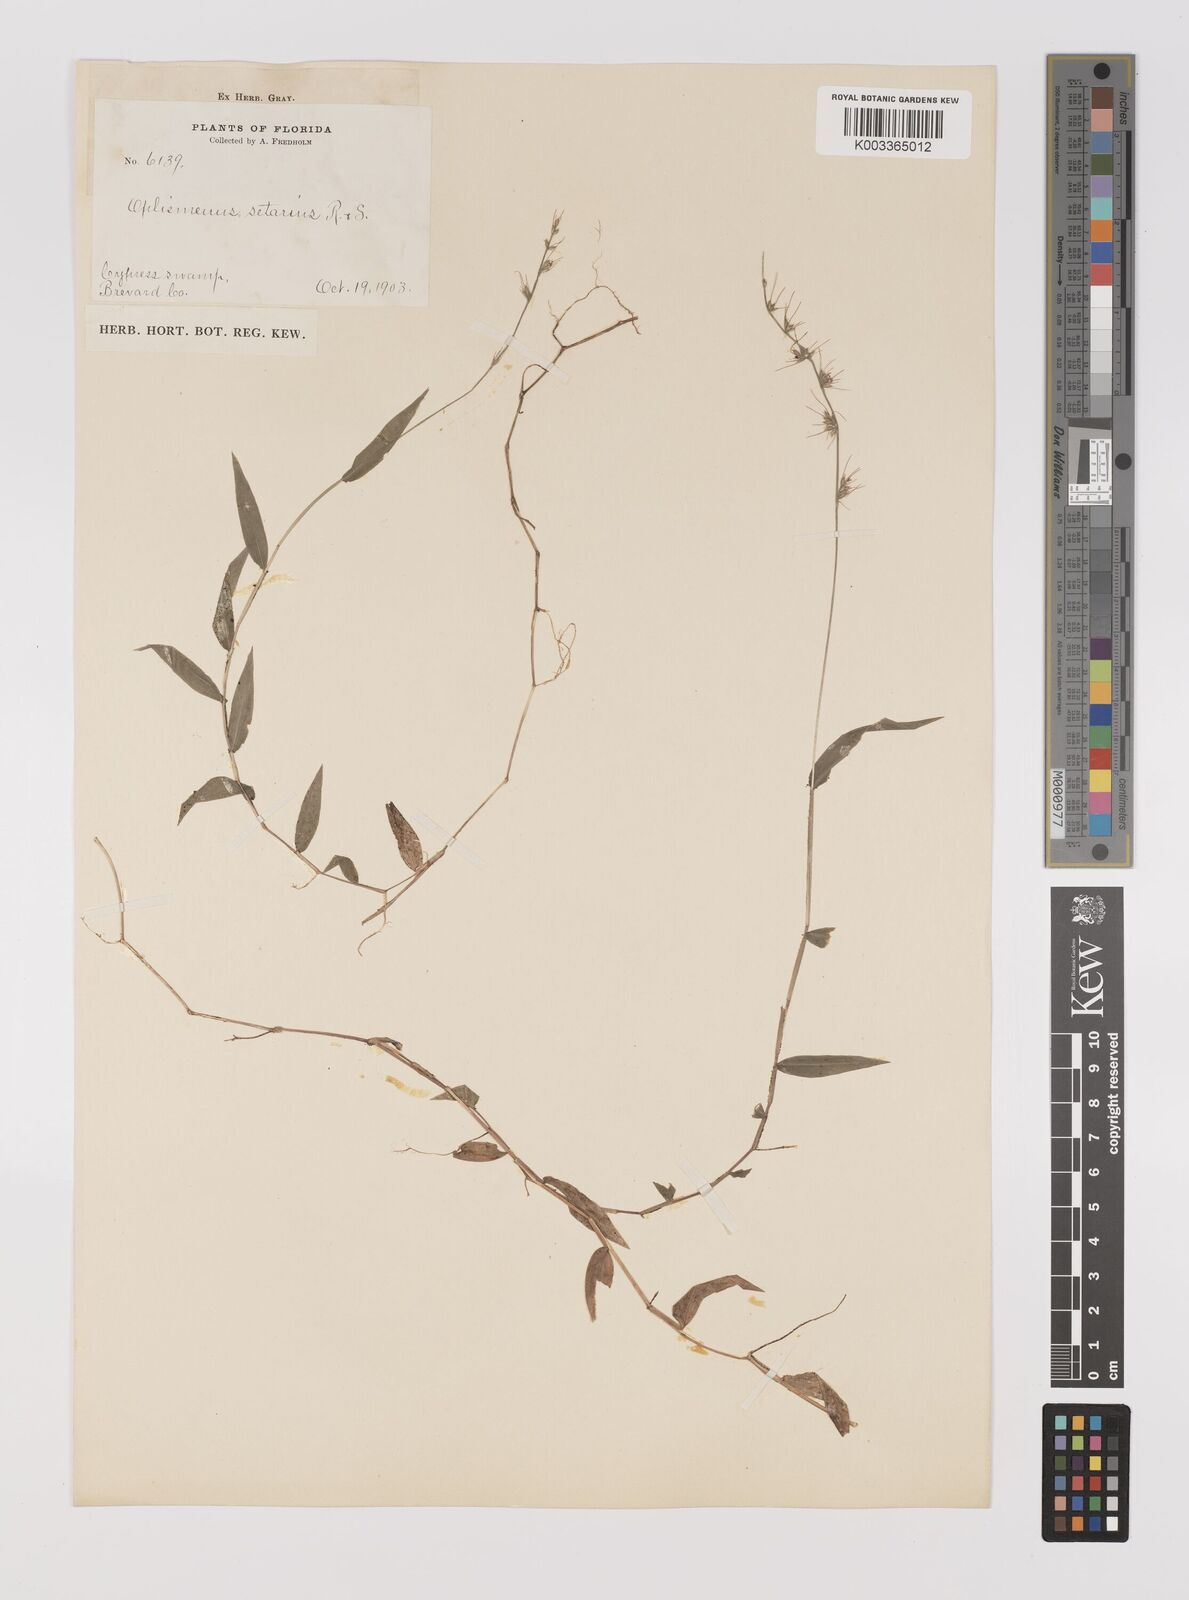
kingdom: Plantae
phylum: Tracheophyta
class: Liliopsida
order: Poales
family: Poaceae
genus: Oplismenus
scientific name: Oplismenus undulatifolius
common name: Wavyleaf basketgrass
